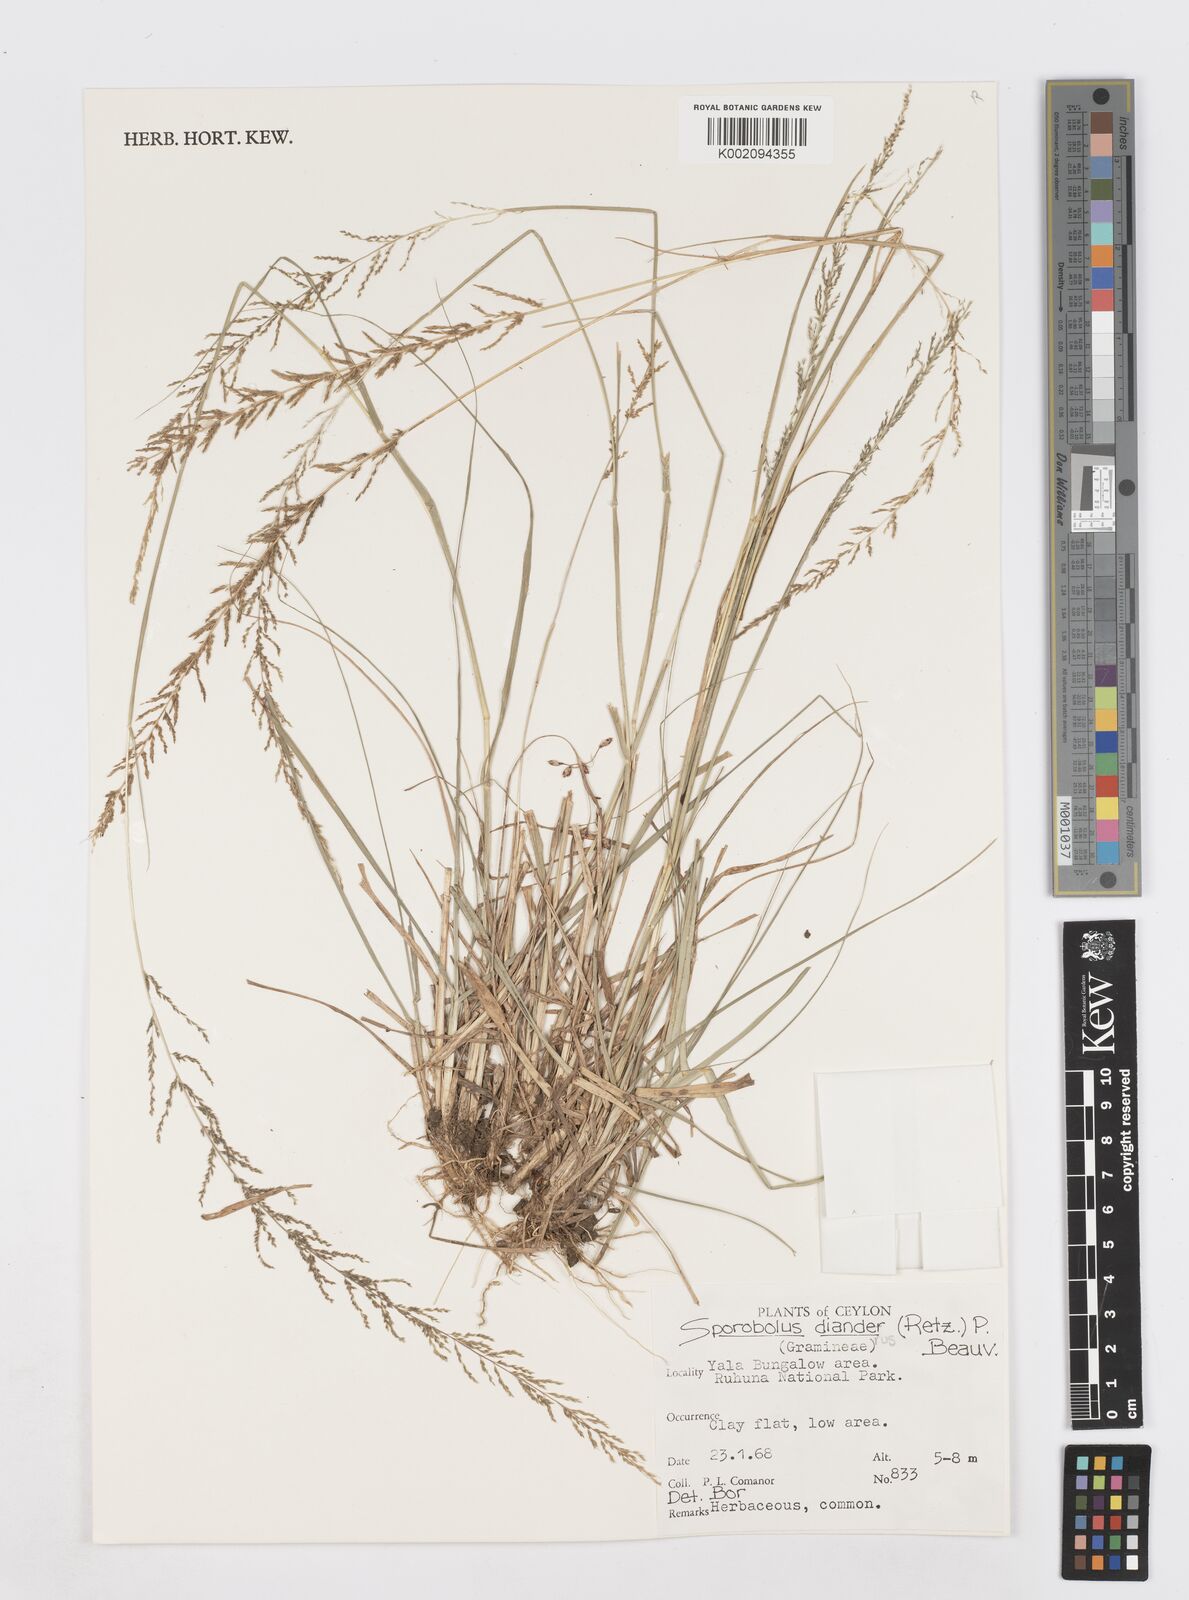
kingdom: Plantae
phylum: Tracheophyta
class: Liliopsida
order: Poales
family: Poaceae
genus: Sporobolus
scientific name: Sporobolus diandrus
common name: Tussock dropseed
